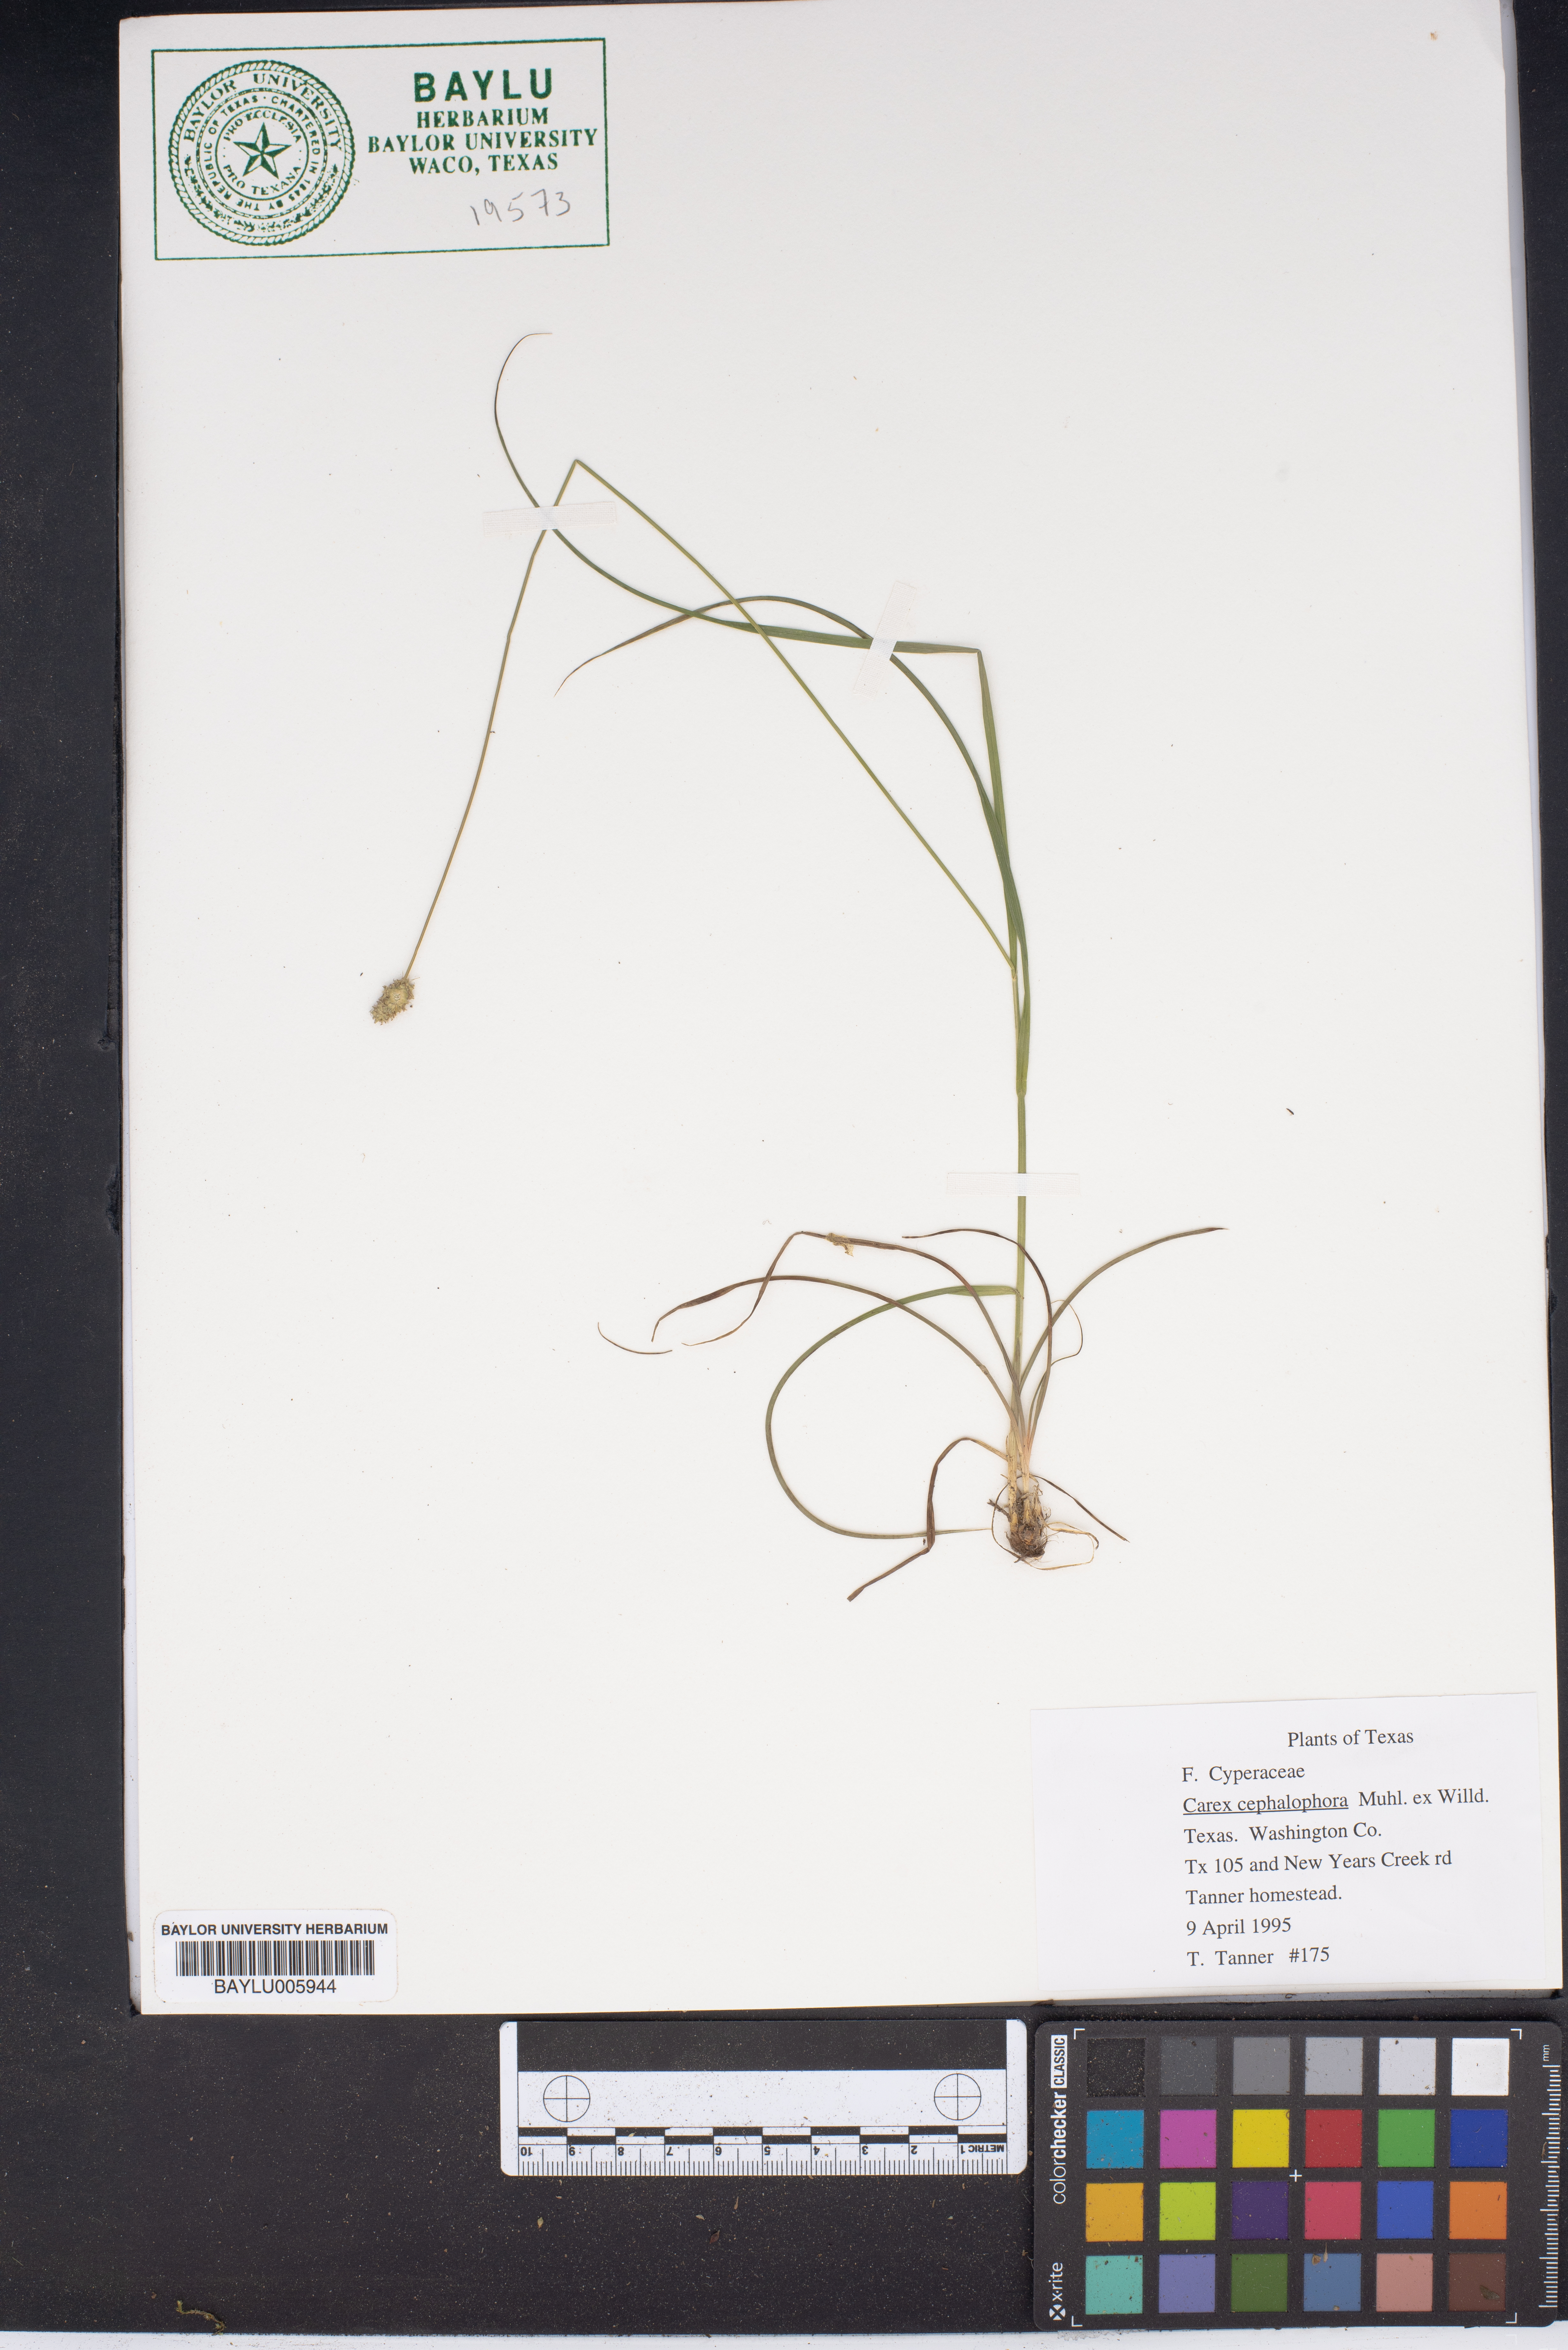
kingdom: Plantae
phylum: Tracheophyta
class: Liliopsida
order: Poales
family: Cyperaceae
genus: Carex
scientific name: Carex cephalophora
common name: Oval-headed sedge
